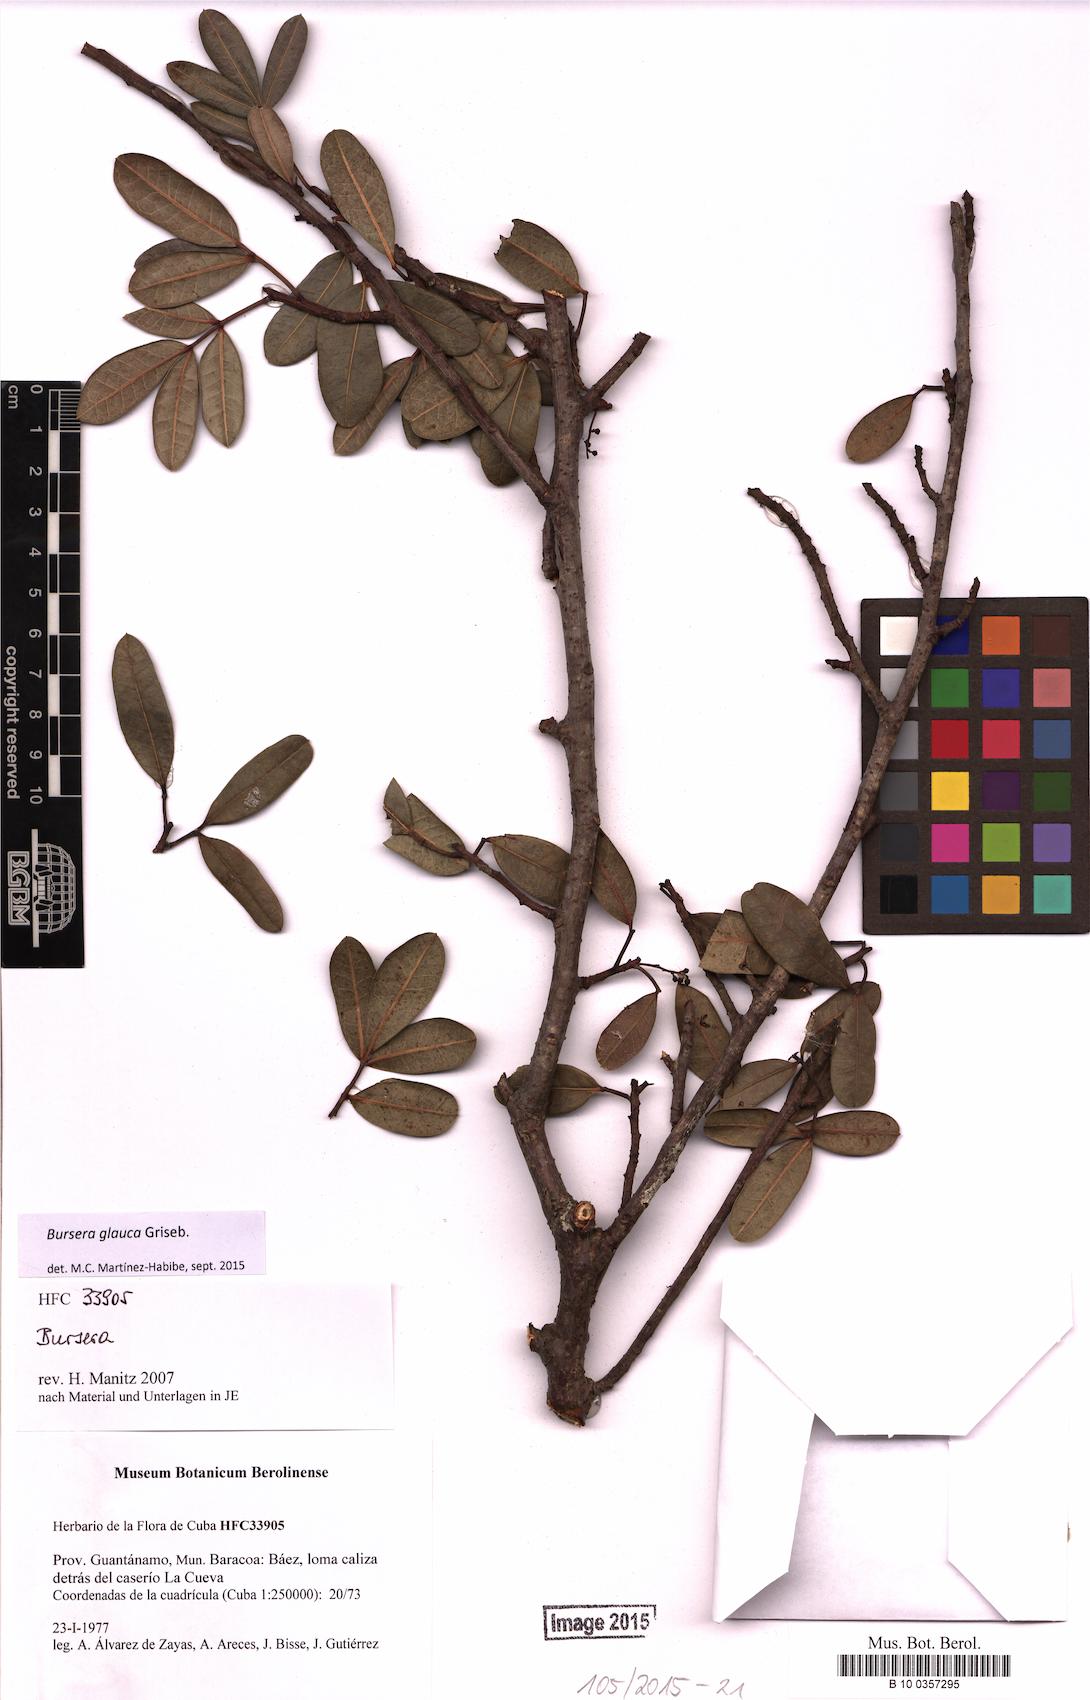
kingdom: Plantae
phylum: Tracheophyta
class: Magnoliopsida
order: Sapindales
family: Burseraceae
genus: Bursera
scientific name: Bursera glauca
